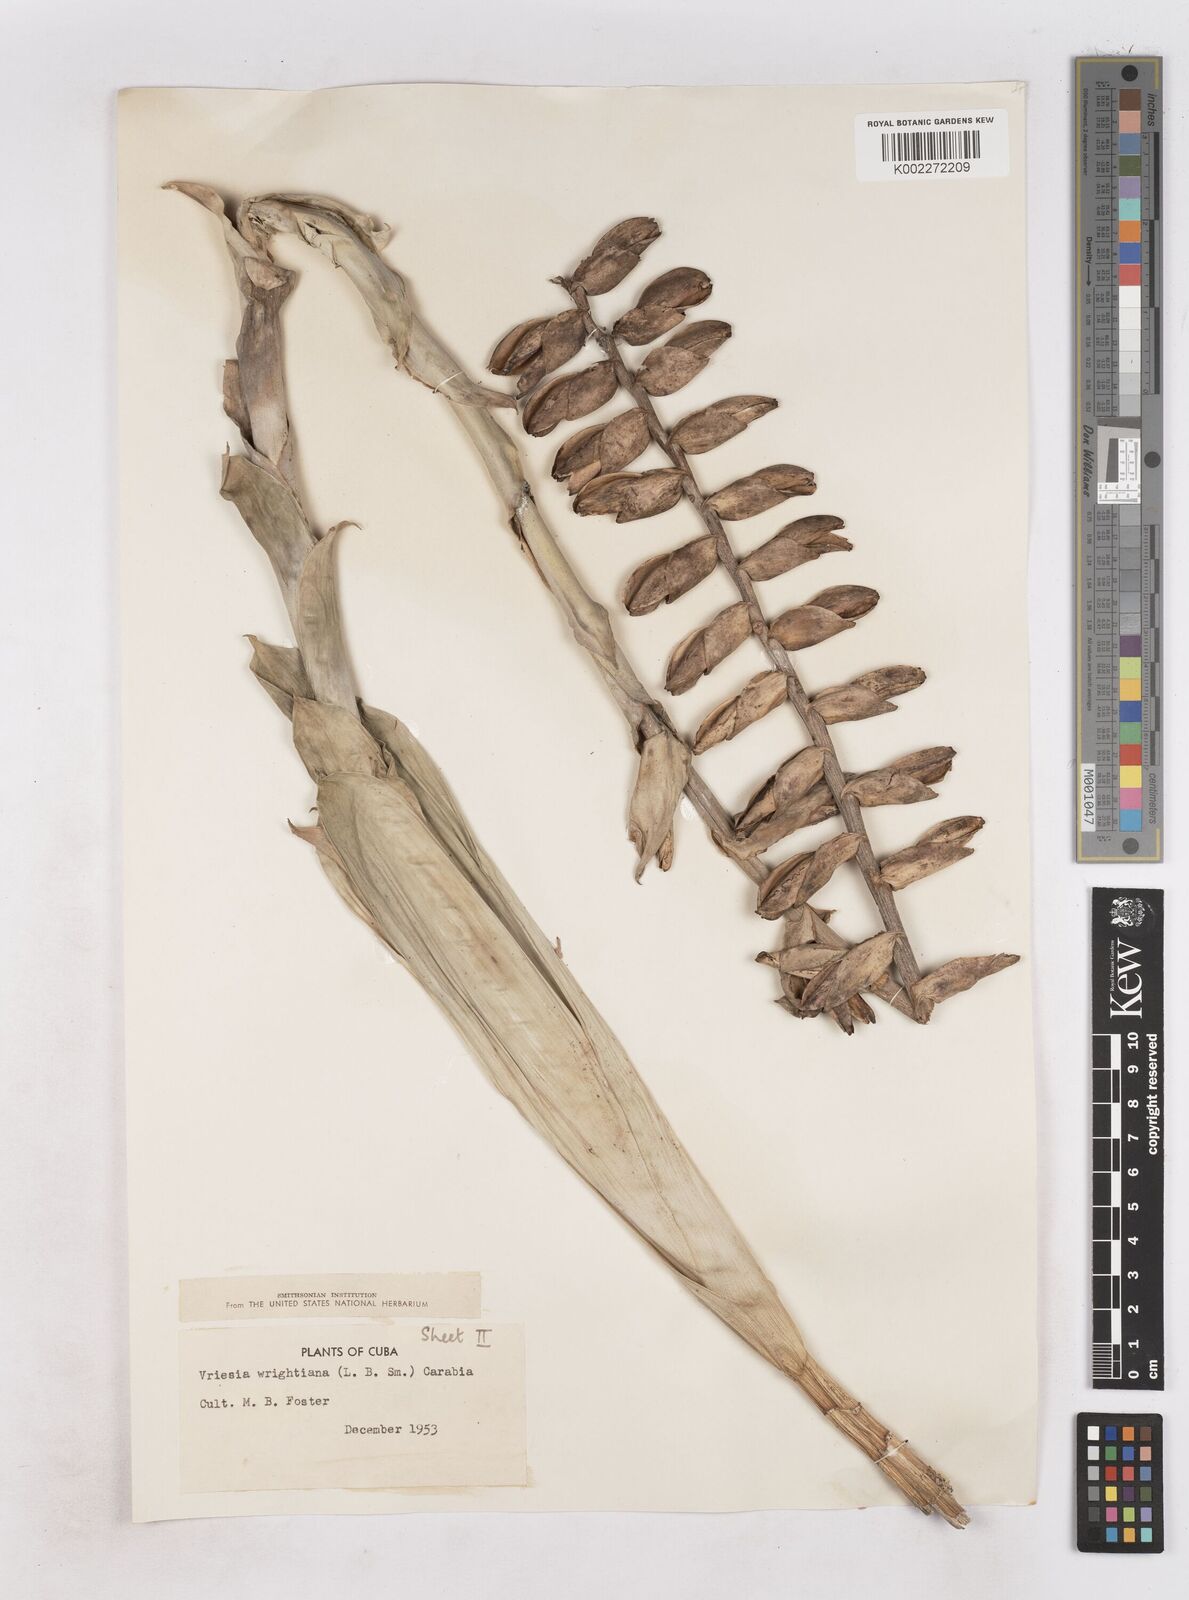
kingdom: Plantae
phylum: Tracheophyta
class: Liliopsida
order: Poales
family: Bromeliaceae
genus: Vriesea
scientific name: Vriesea
